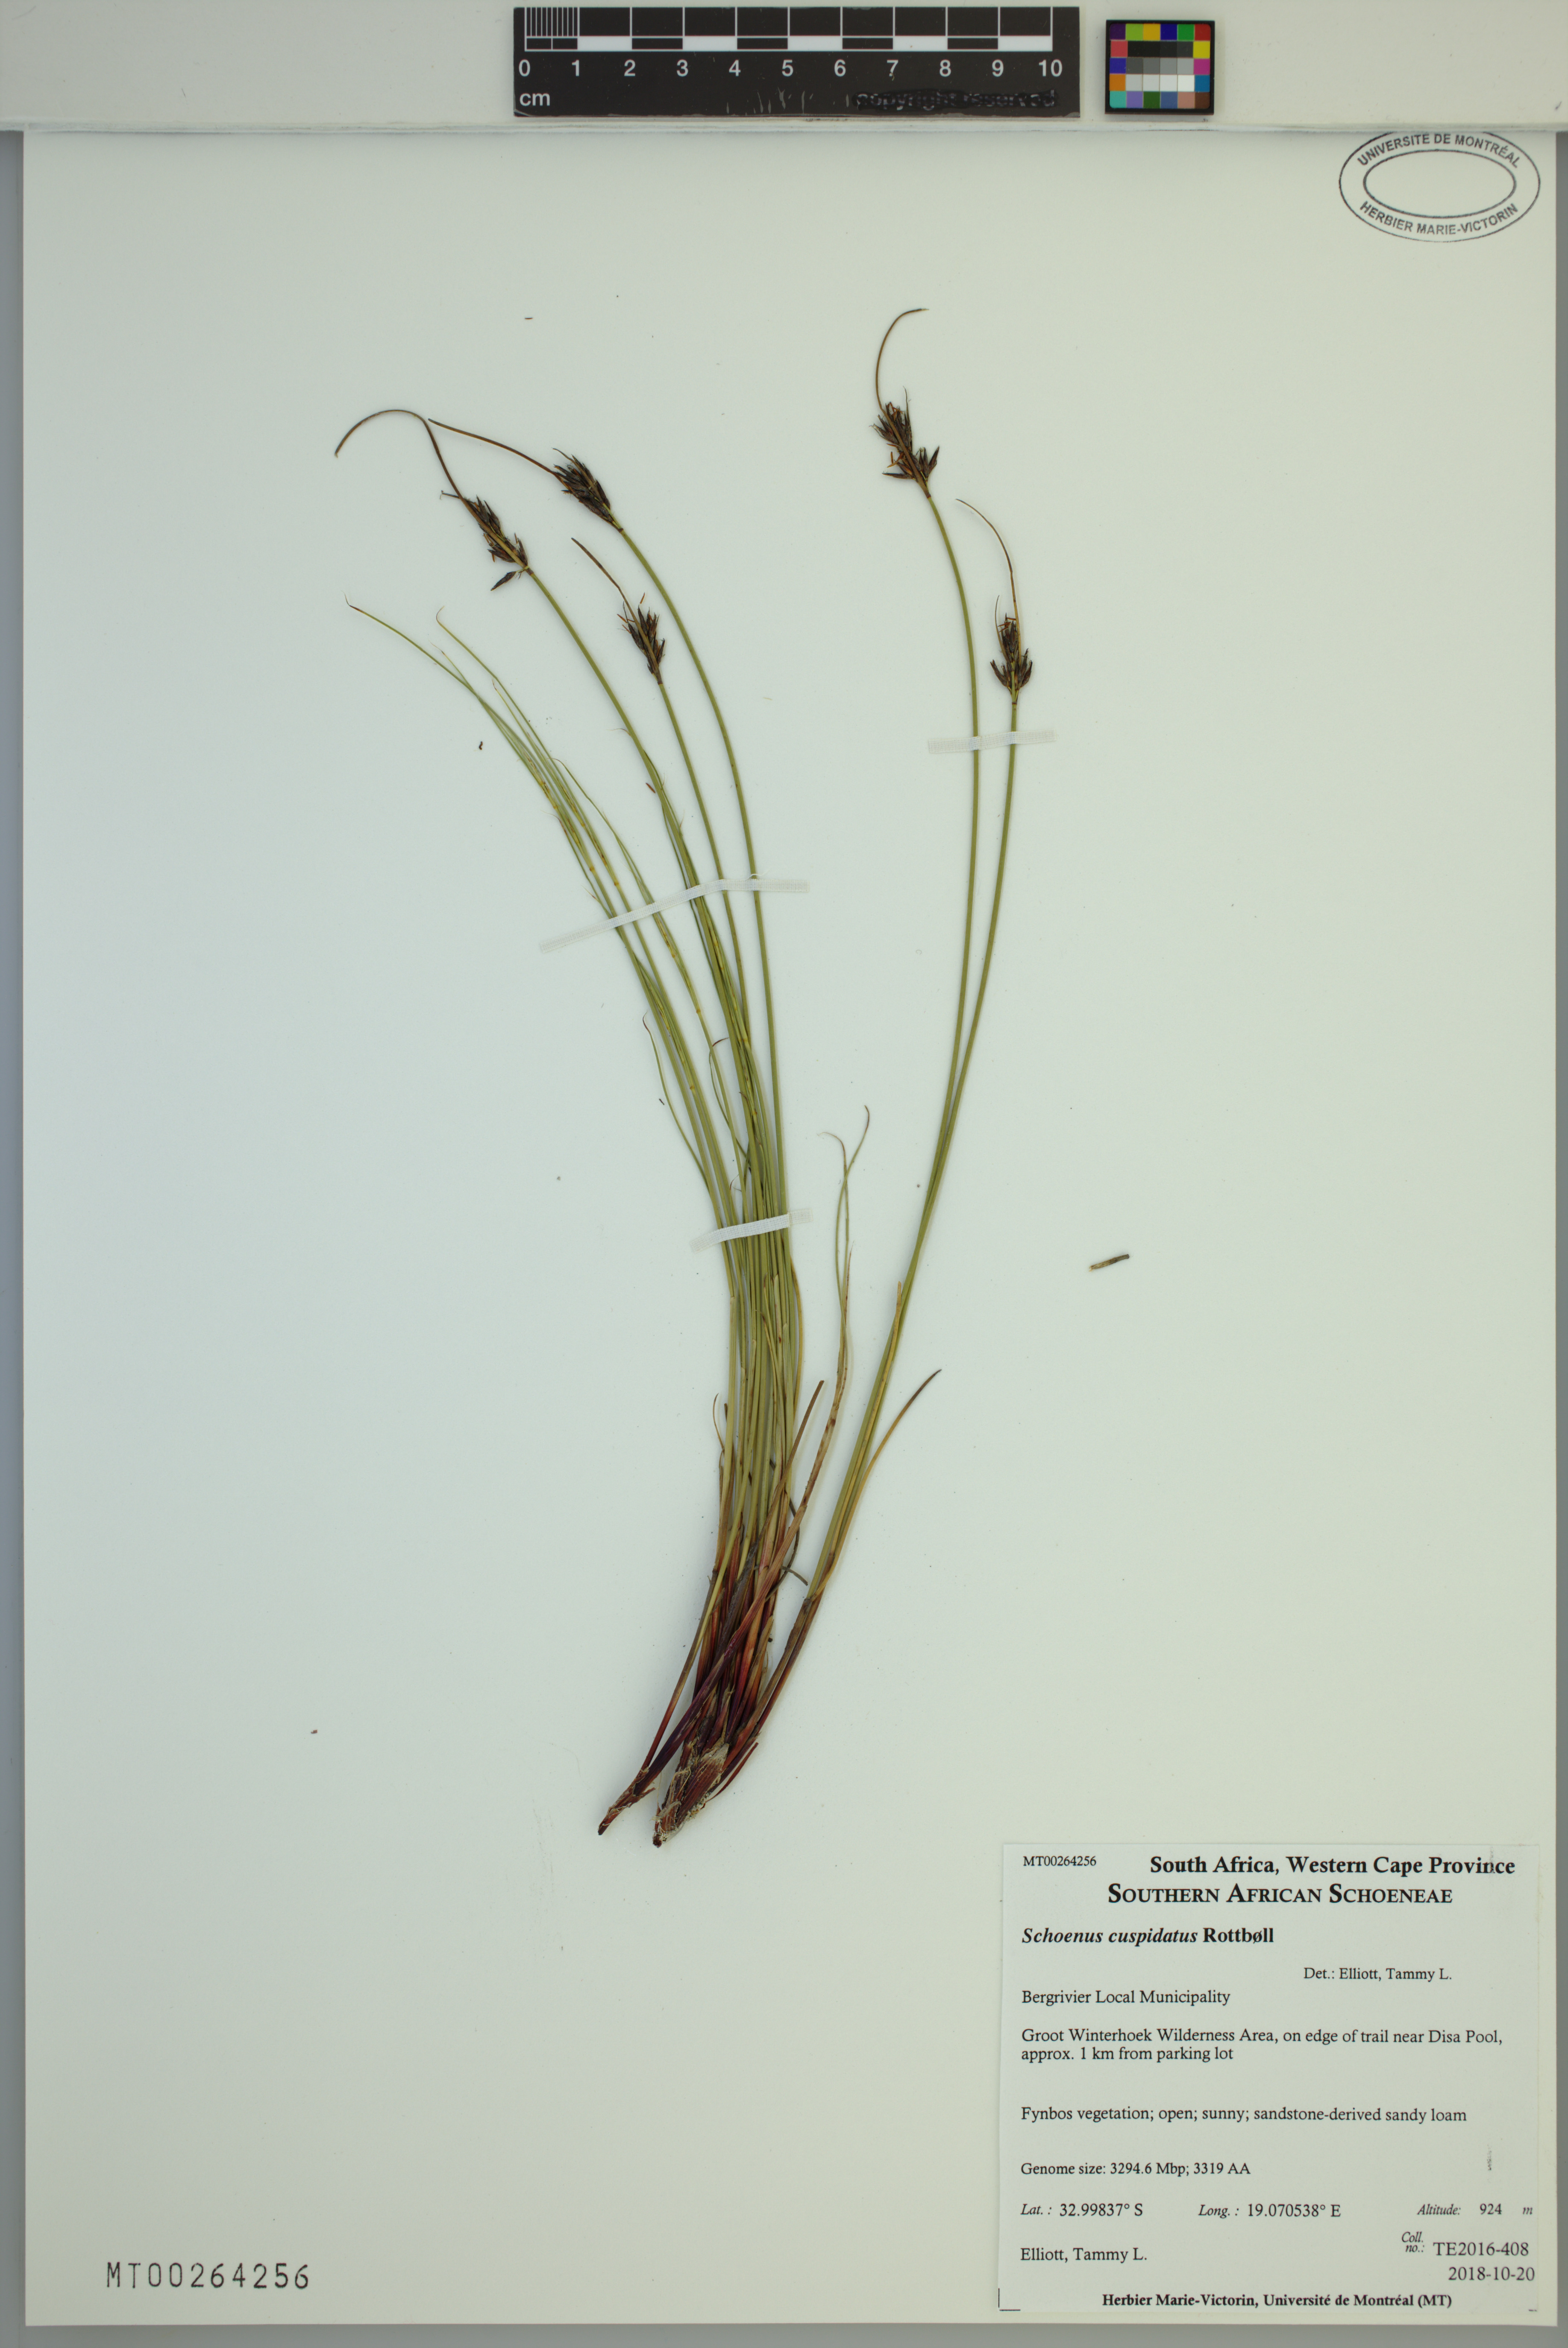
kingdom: Plantae
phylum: Tracheophyta
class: Liliopsida
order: Poales
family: Cyperaceae
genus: Schoenus
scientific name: Schoenus cuspidatus
